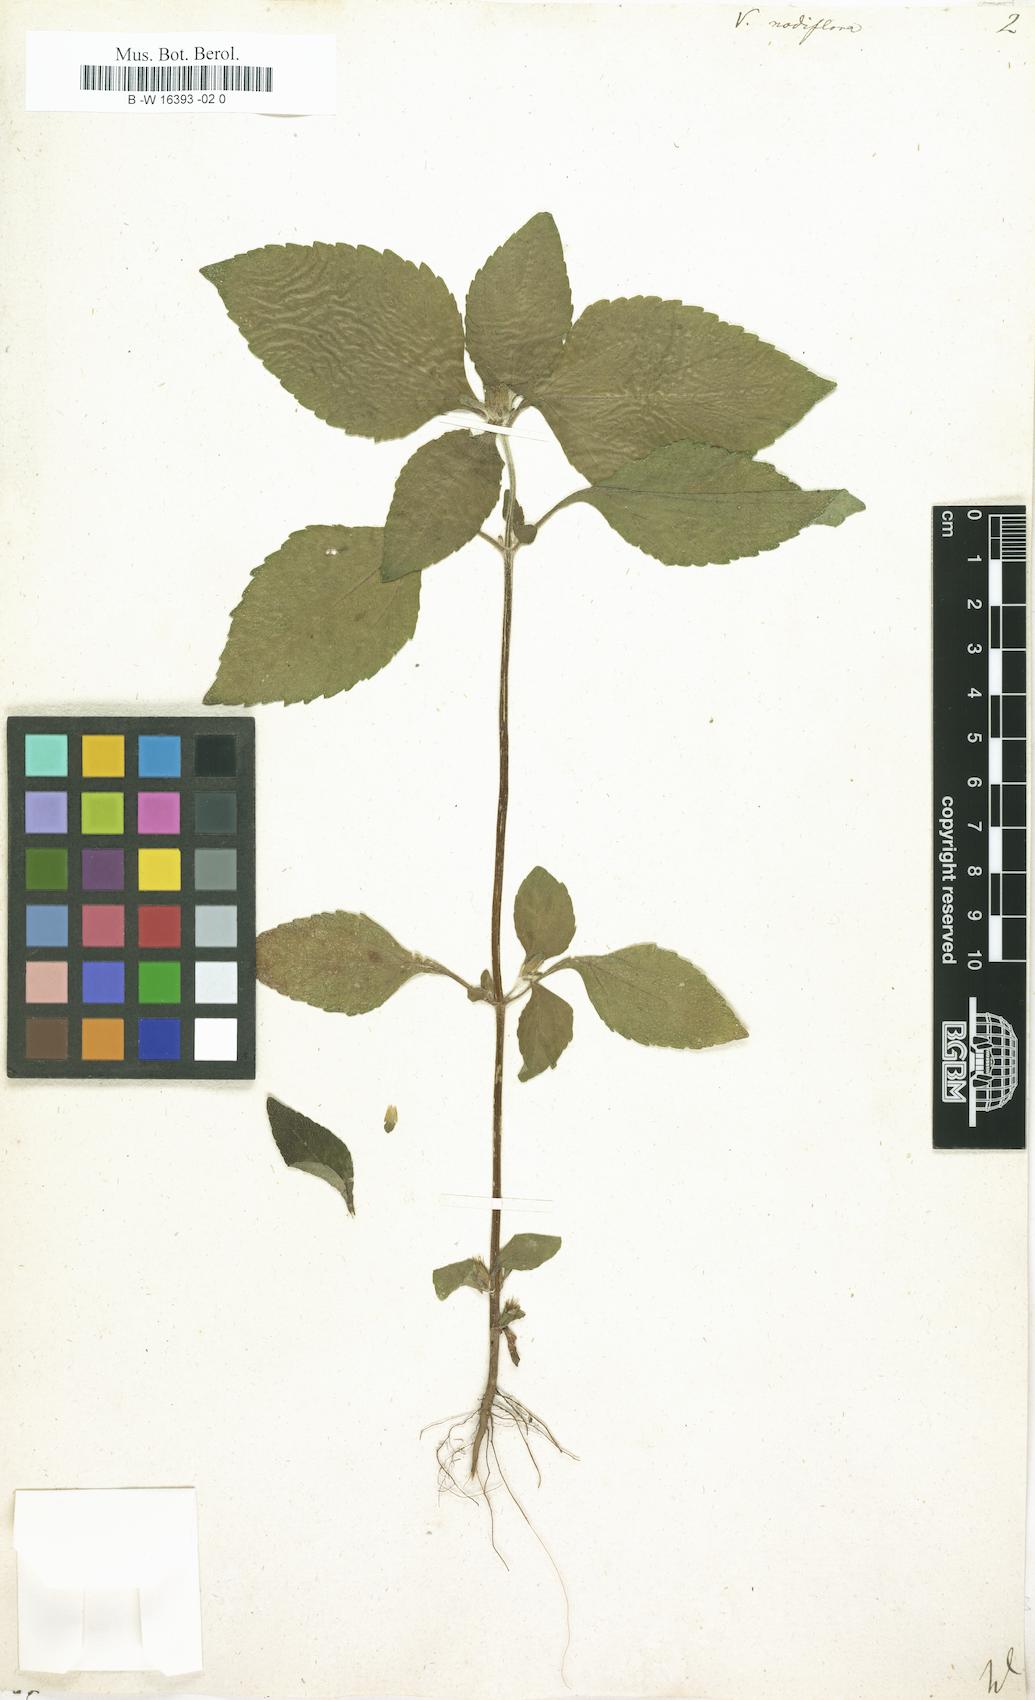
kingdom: Plantae
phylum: Tracheophyta
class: Magnoliopsida
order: Asterales
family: Asteraceae
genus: Synedrella
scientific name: Synedrella nodiflora
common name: Nodeweed
